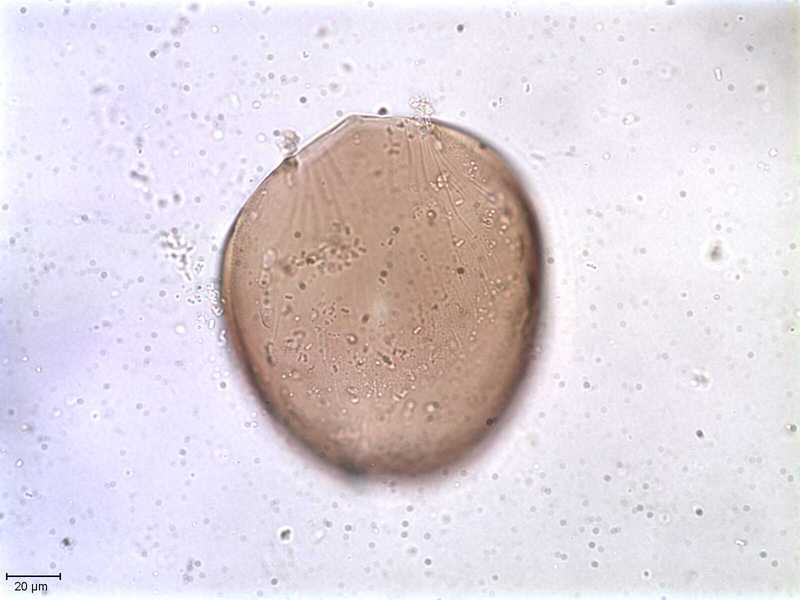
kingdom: Animalia
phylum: Arthropoda
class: Arachnida
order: Sarcoptiformes
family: Oppiidae
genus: Oppiella
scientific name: Oppiella
